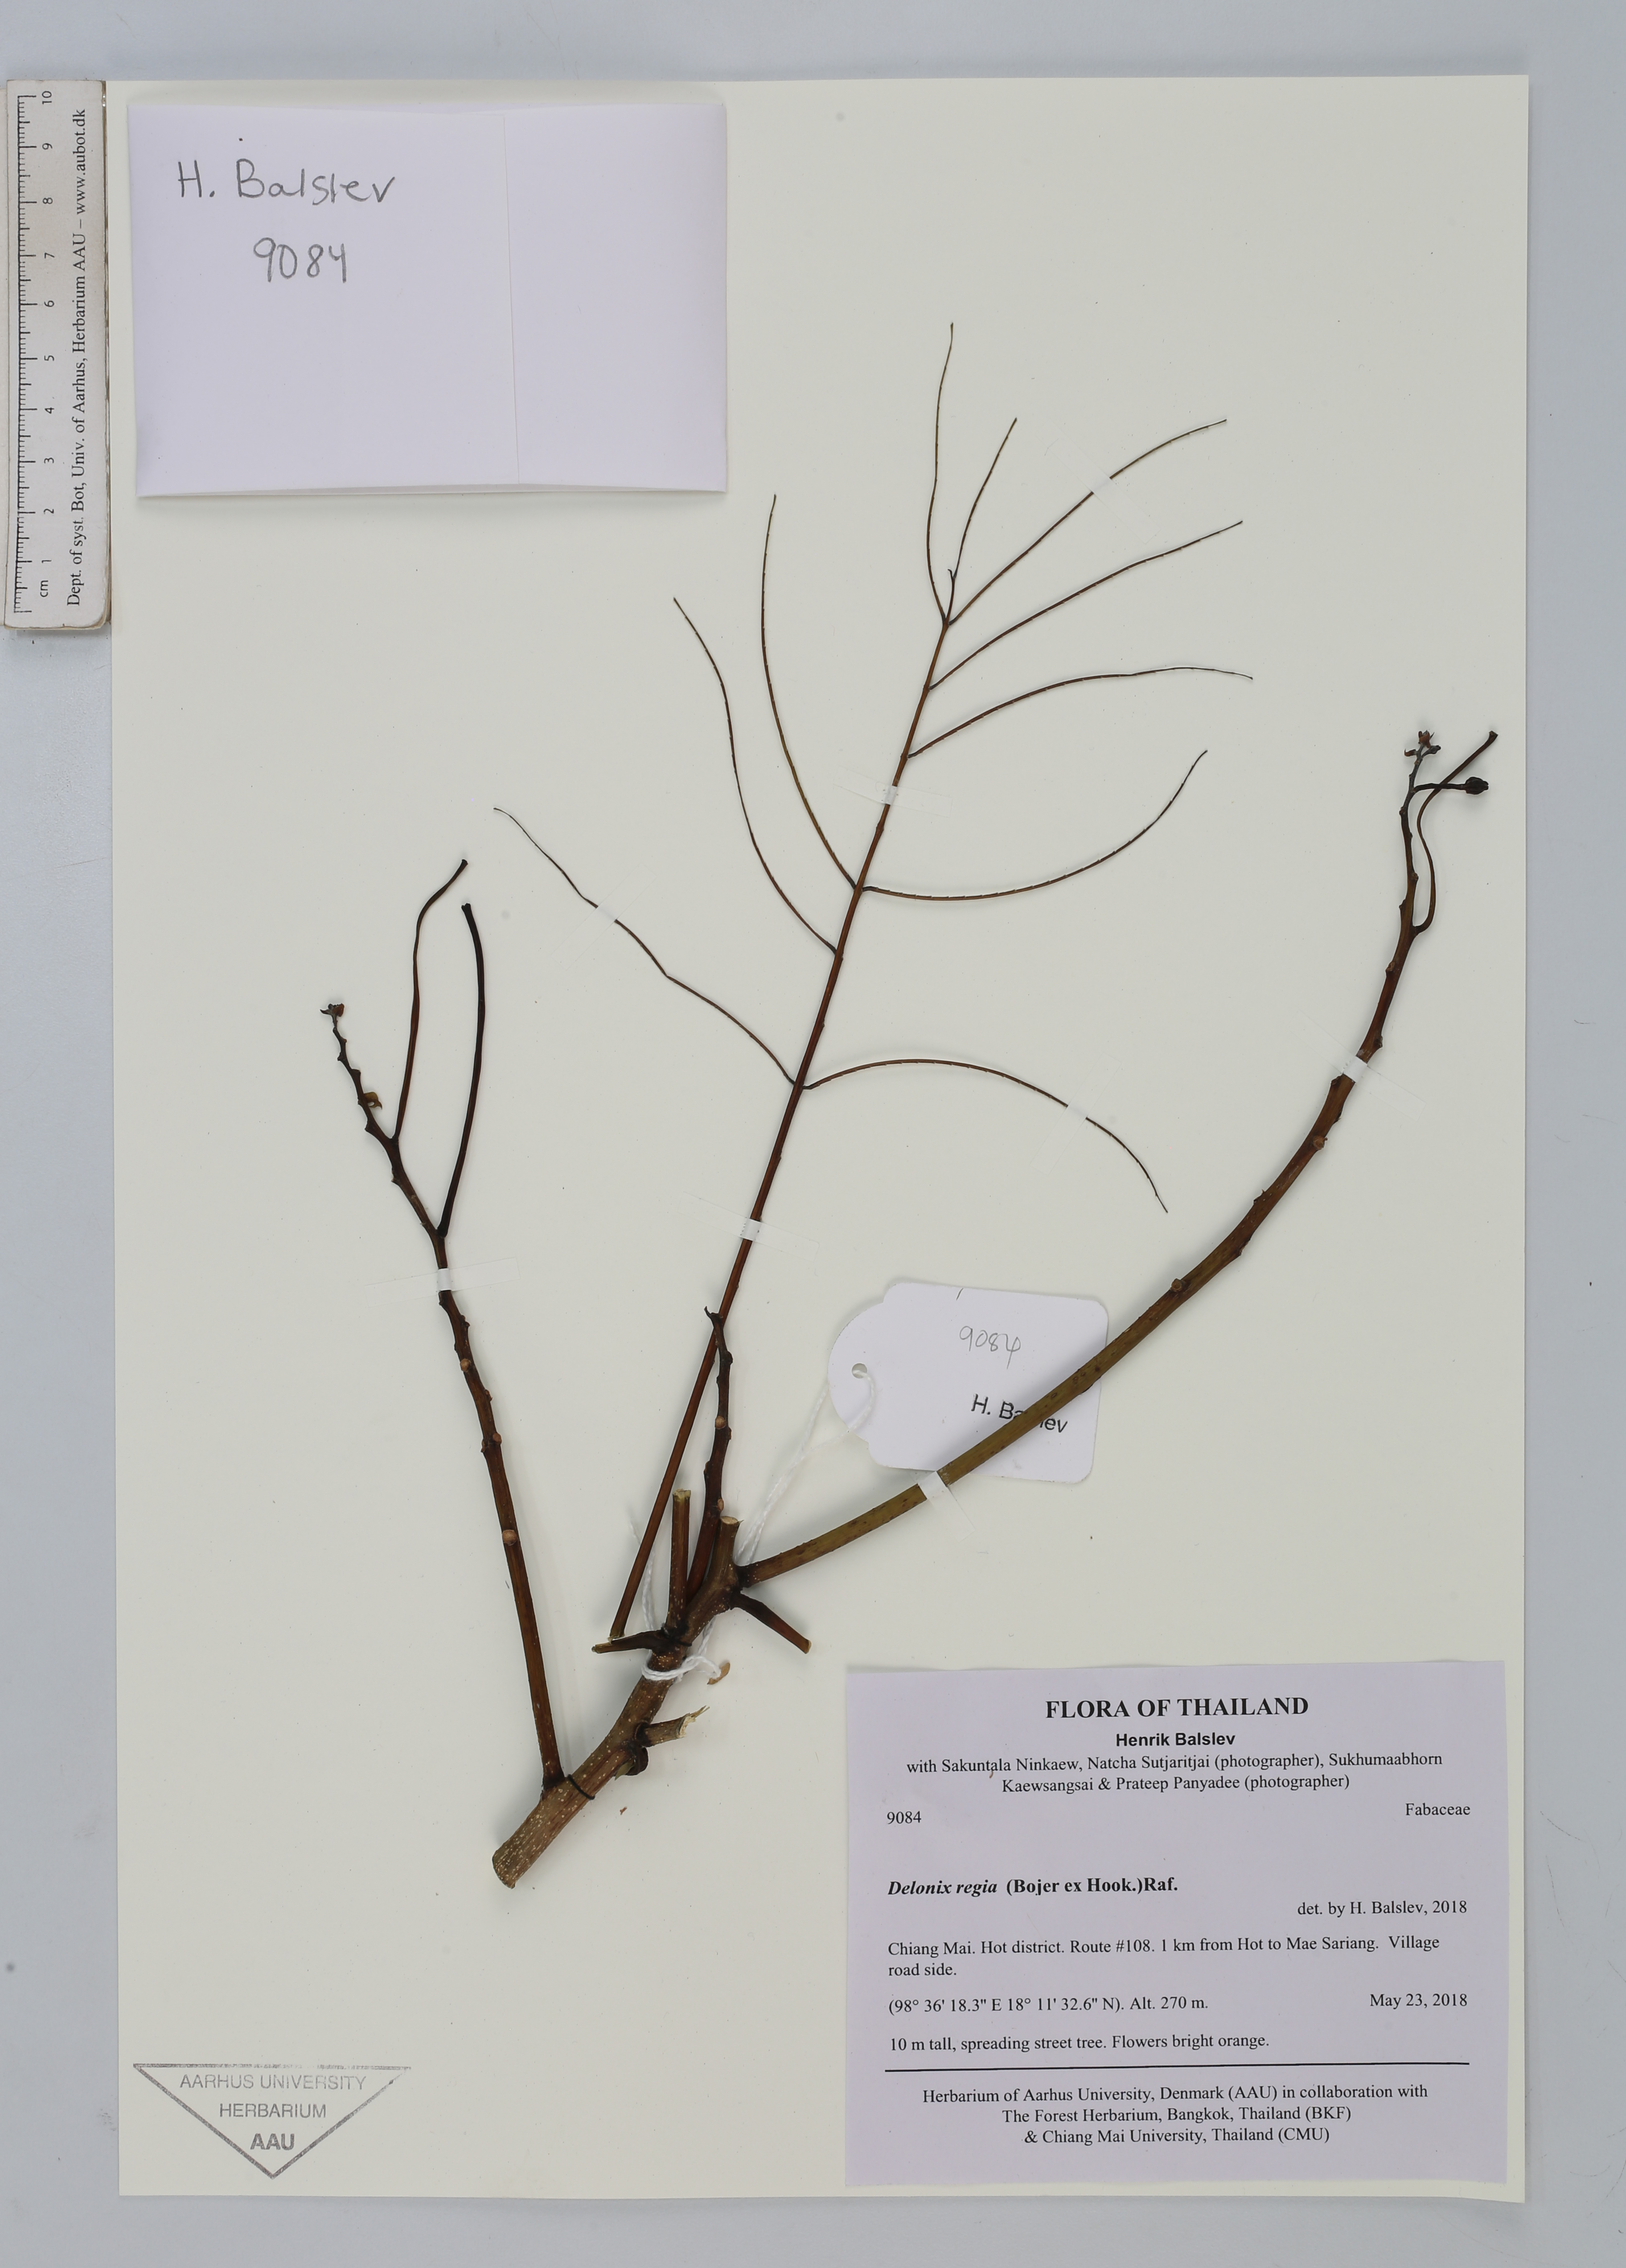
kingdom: Plantae
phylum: Tracheophyta
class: Magnoliopsida
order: Fabales
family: Fabaceae
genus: Delonix
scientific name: Delonix regia
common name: Royal poinciana
